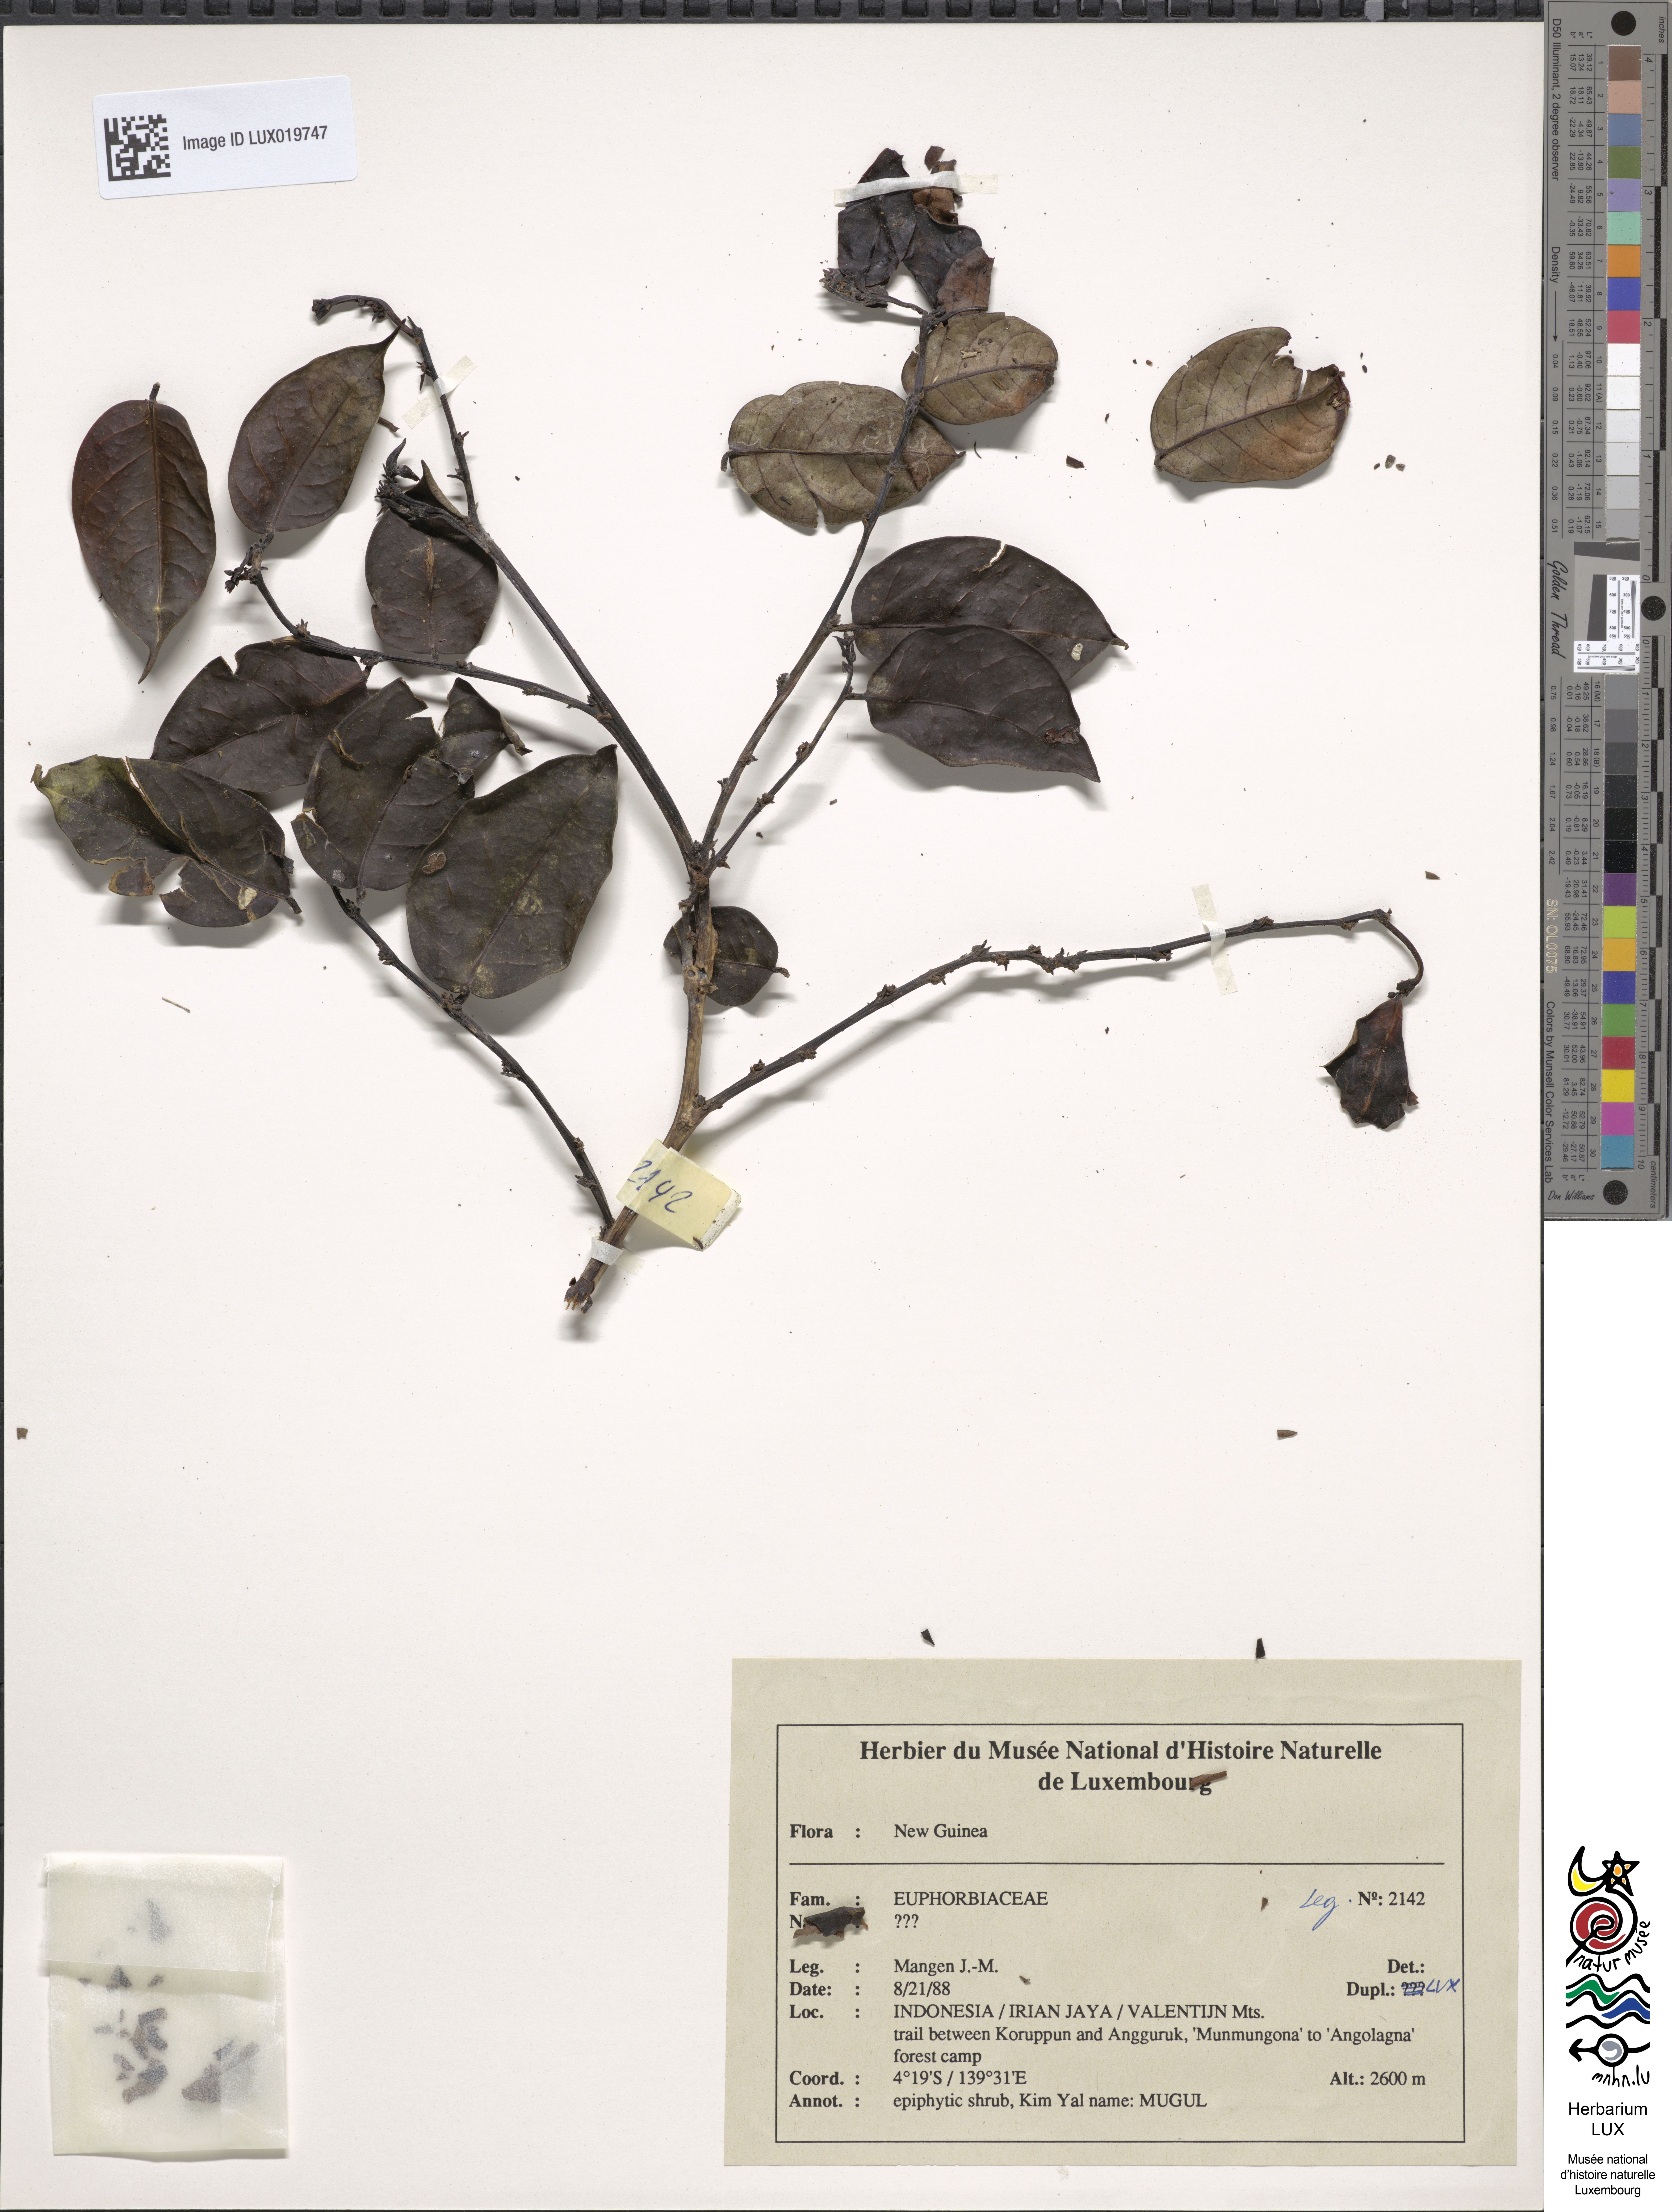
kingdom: Plantae
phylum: Tracheophyta
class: Magnoliopsida
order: Malpighiales
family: Euphorbiaceae
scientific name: Euphorbiaceae
